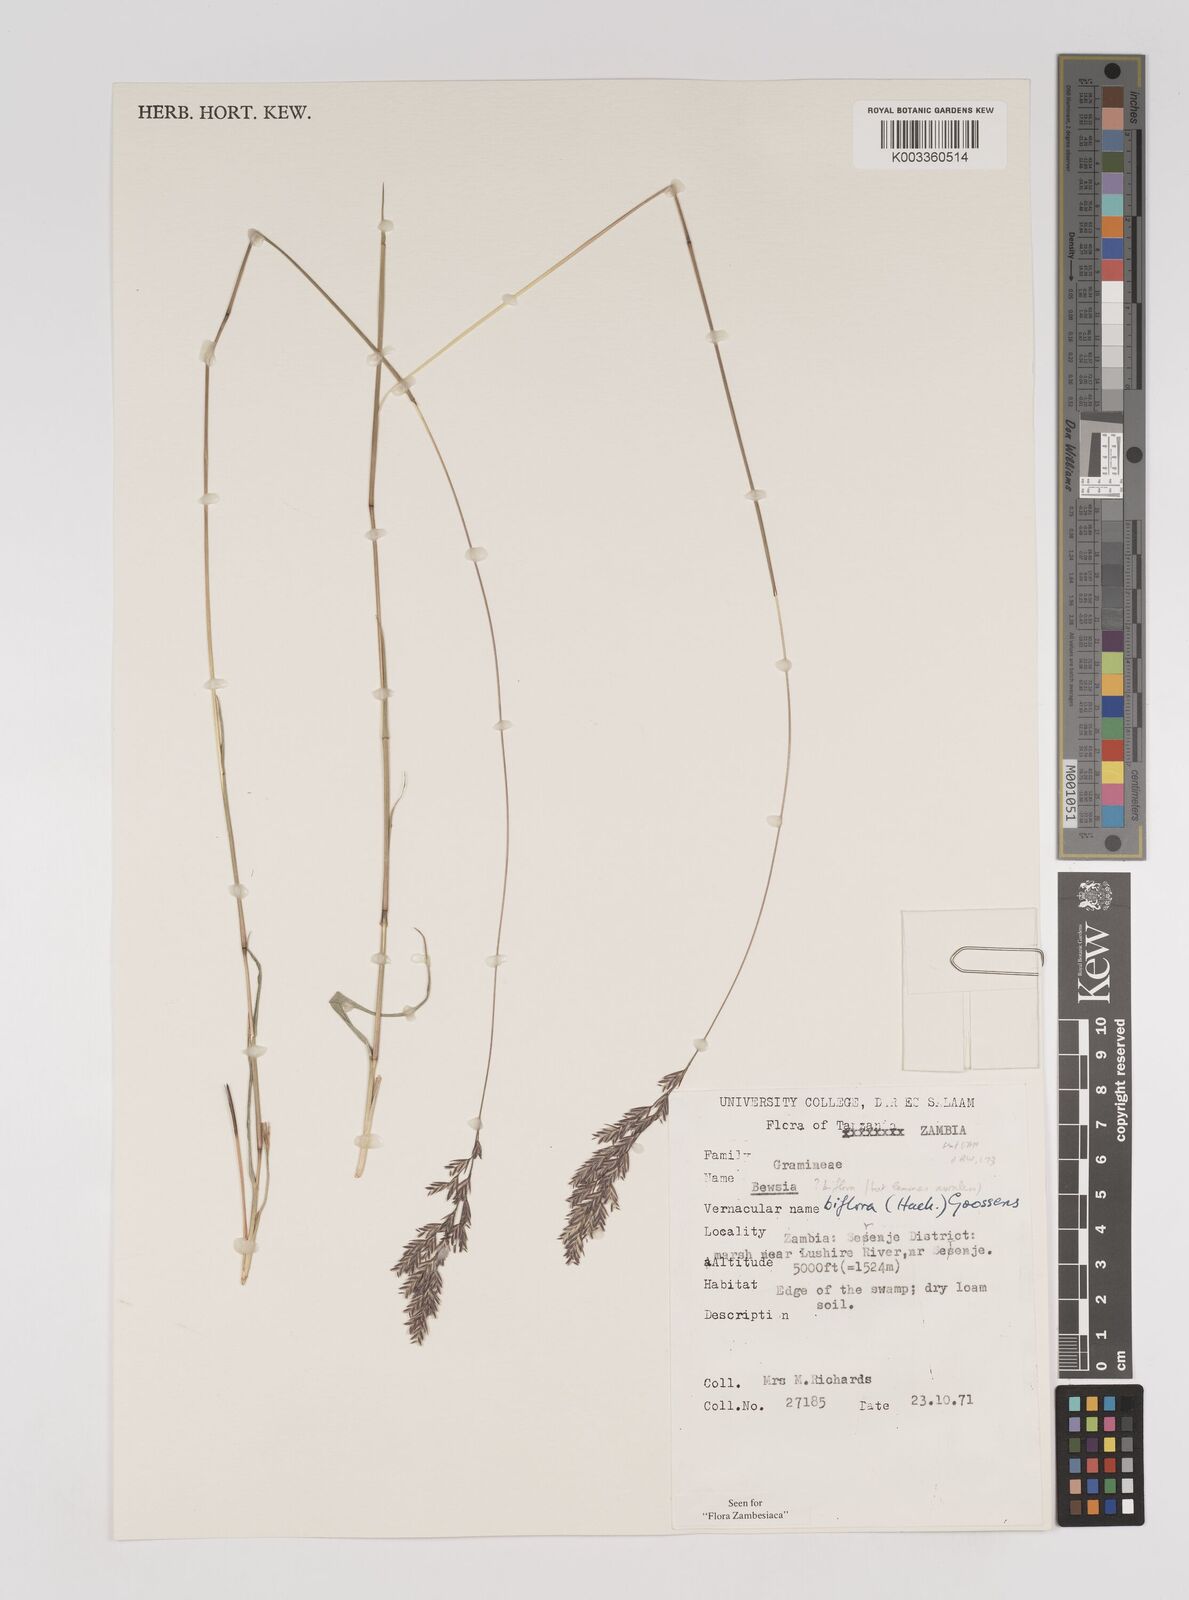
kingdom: Plantae
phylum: Tracheophyta
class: Liliopsida
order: Poales
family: Poaceae
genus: Bewsia
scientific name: Bewsia biflora
